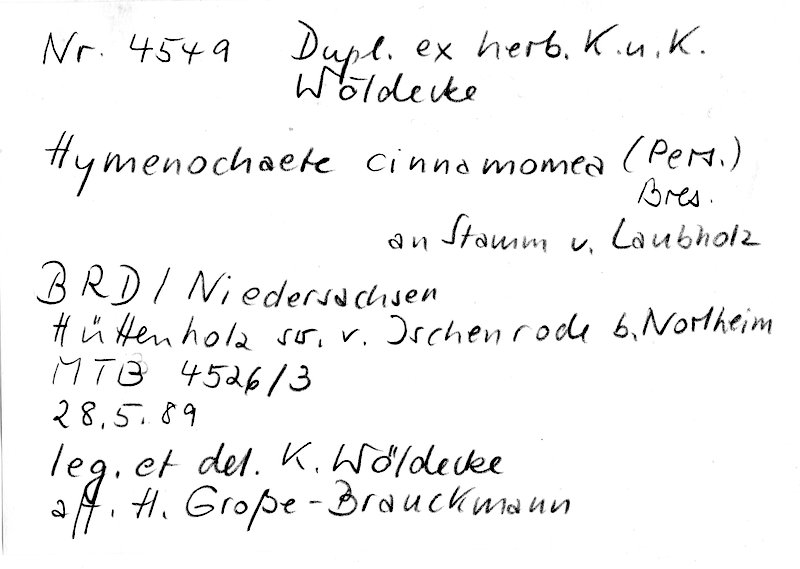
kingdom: Fungi
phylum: Basidiomycota
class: Agaricomycetes
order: Hymenochaetales
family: Hymenochaetaceae
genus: Hymenochaete
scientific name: Hymenochaete cinnamomea
